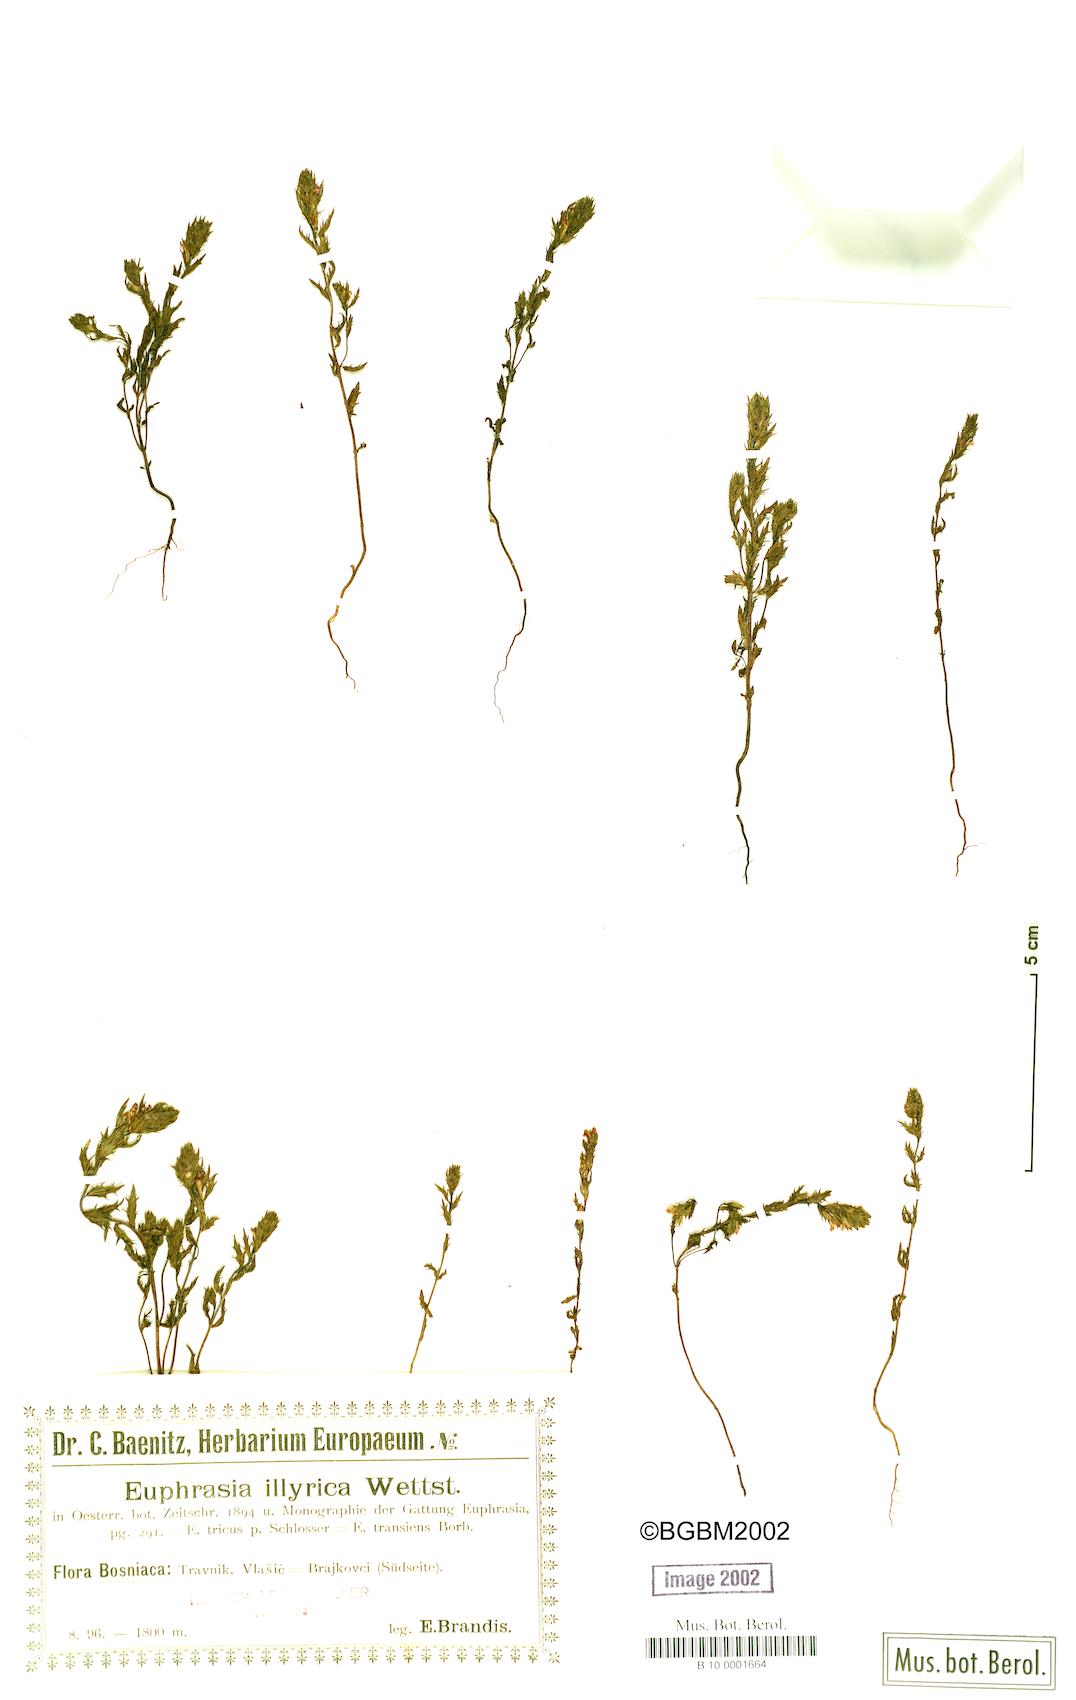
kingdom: Plantae
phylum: Tracheophyta
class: Magnoliopsida
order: Lamiales
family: Orobanchaceae
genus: Euphrasia
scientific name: Euphrasia illyrica
